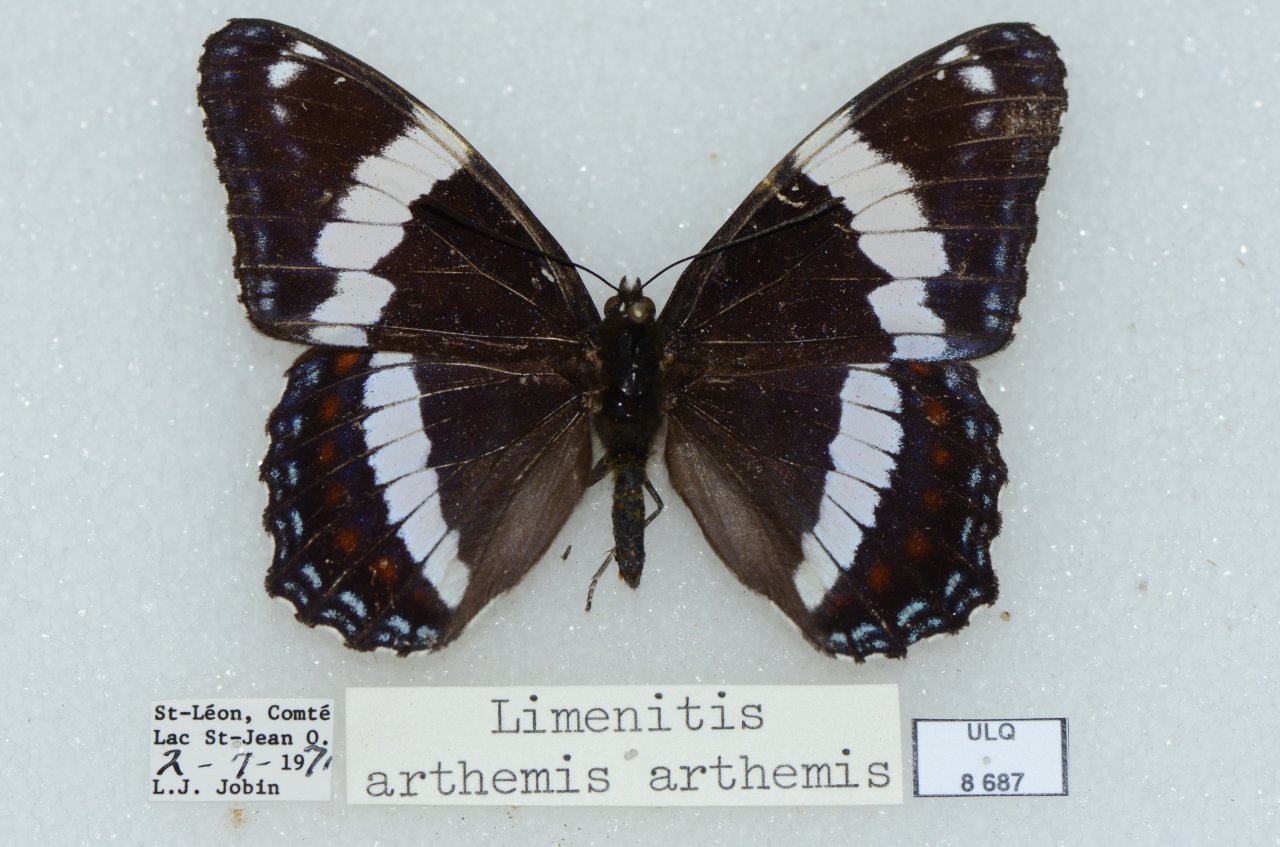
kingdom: Animalia
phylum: Arthropoda
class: Insecta
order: Lepidoptera
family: Nymphalidae
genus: Limenitis
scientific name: Limenitis arthemis
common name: Red-spotted Admiral
